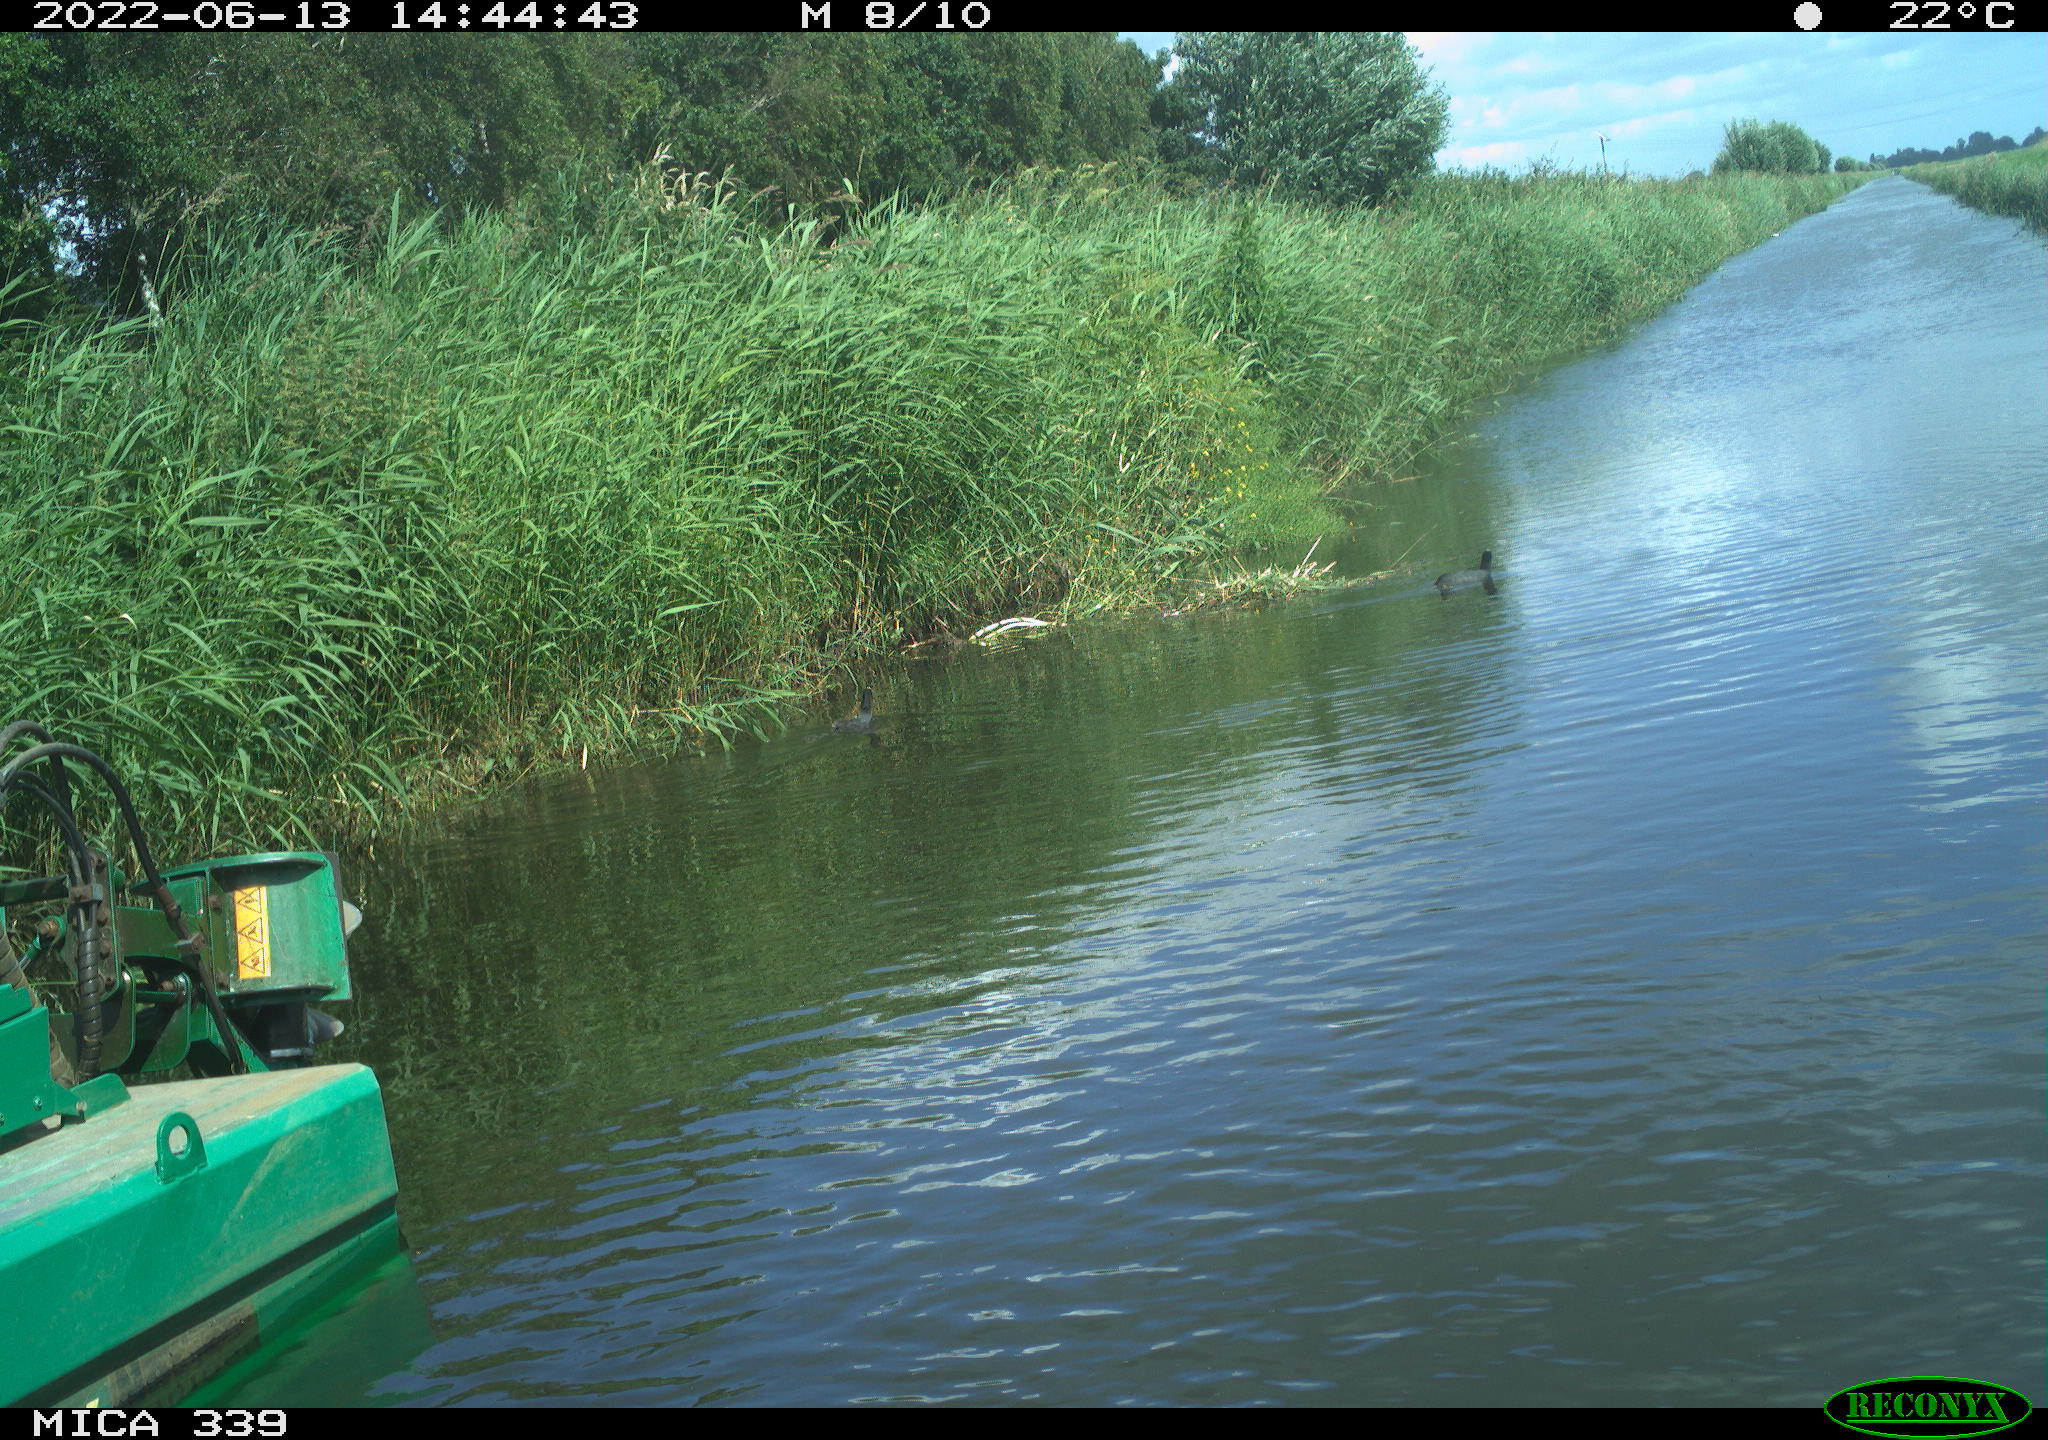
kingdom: Animalia
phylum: Chordata
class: Aves
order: Gruiformes
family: Rallidae
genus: Fulica
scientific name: Fulica atra
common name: Eurasian coot
